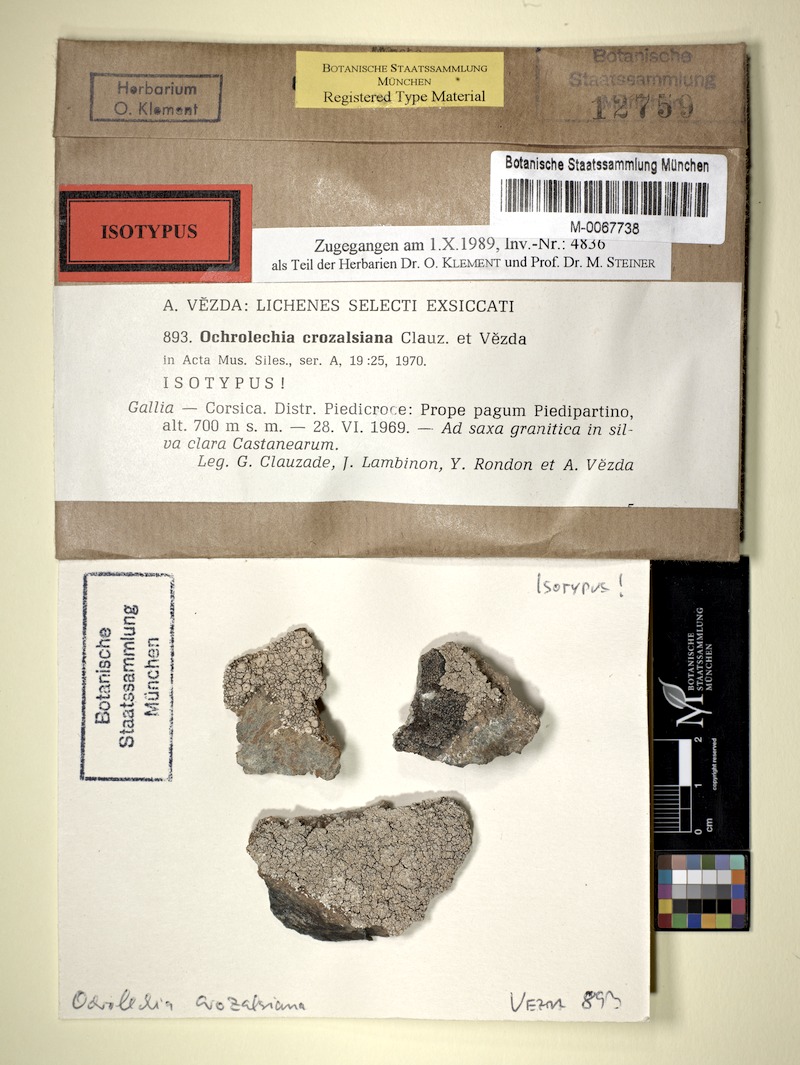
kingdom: Fungi
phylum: Ascomycota
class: Lecanoromycetes
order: Pertusariales
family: Ochrolechiaceae
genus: Ochrolechia
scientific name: Ochrolechia crozalsiana
